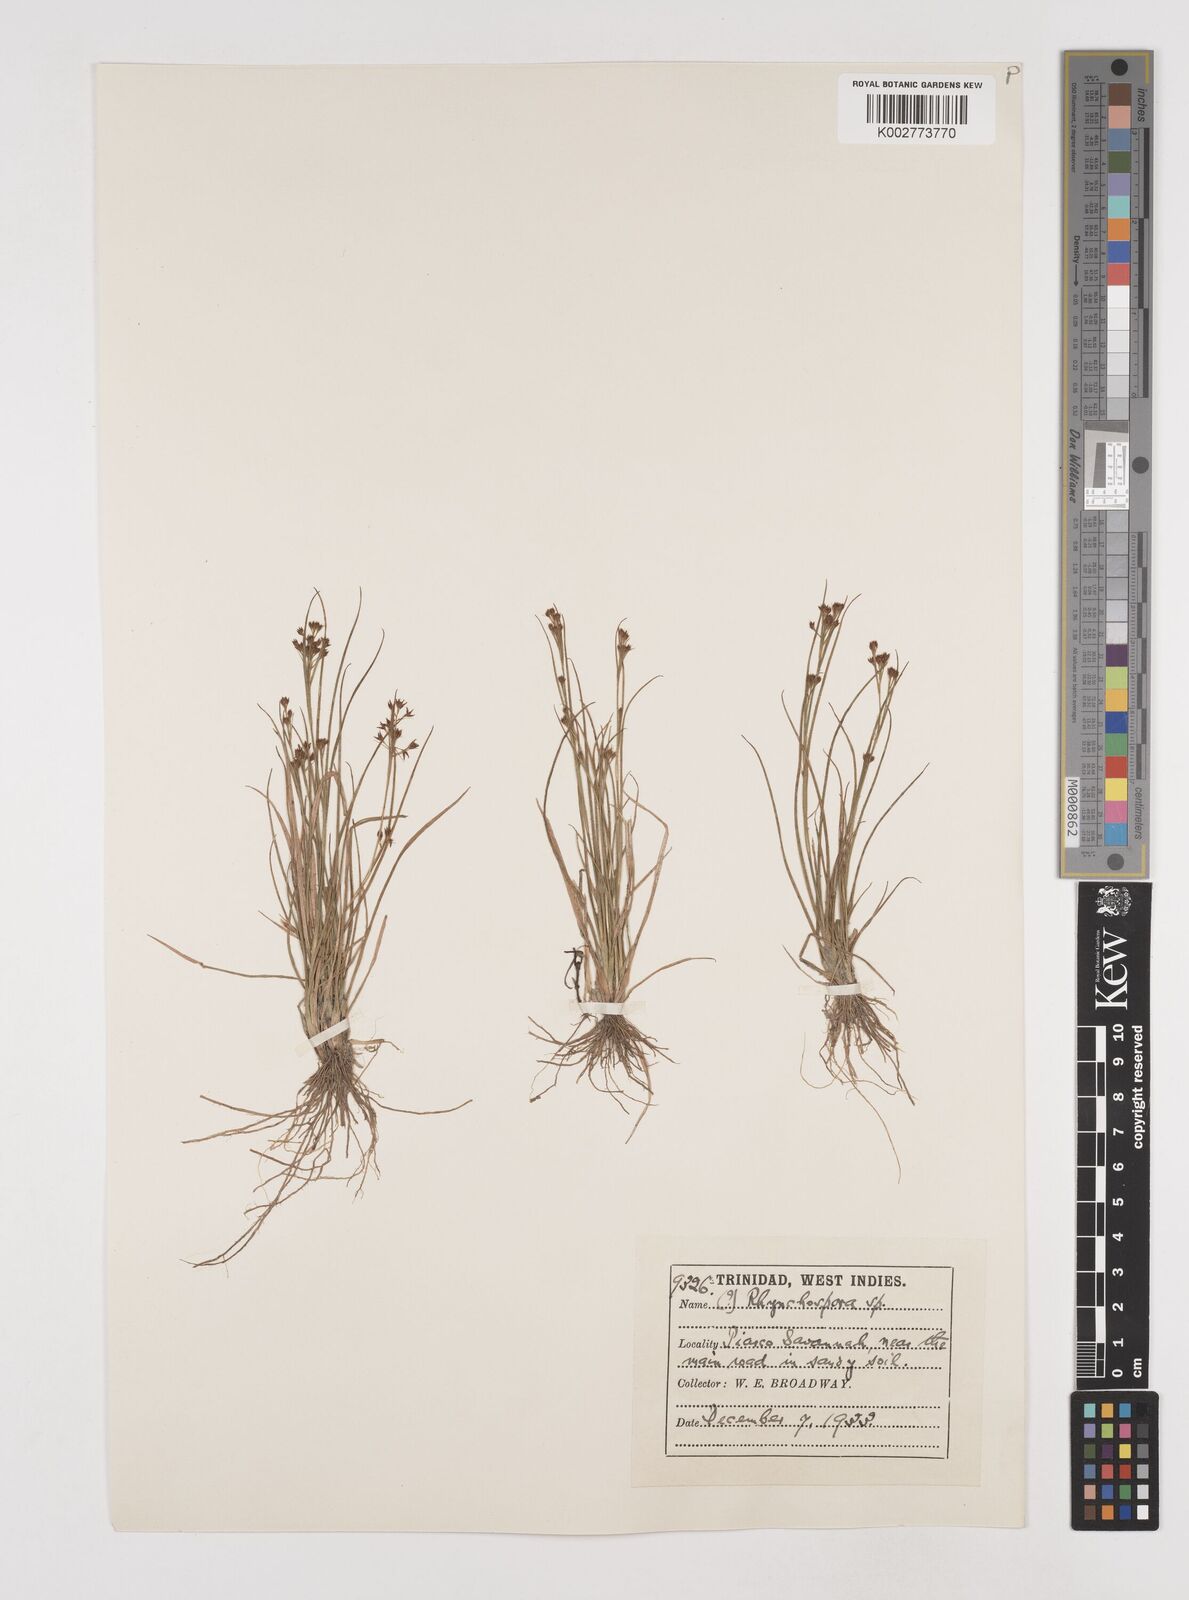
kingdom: Plantae
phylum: Tracheophyta
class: Liliopsida
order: Poales
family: Cyperaceae
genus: Rhynchospora
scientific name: Rhynchospora hirsuta
